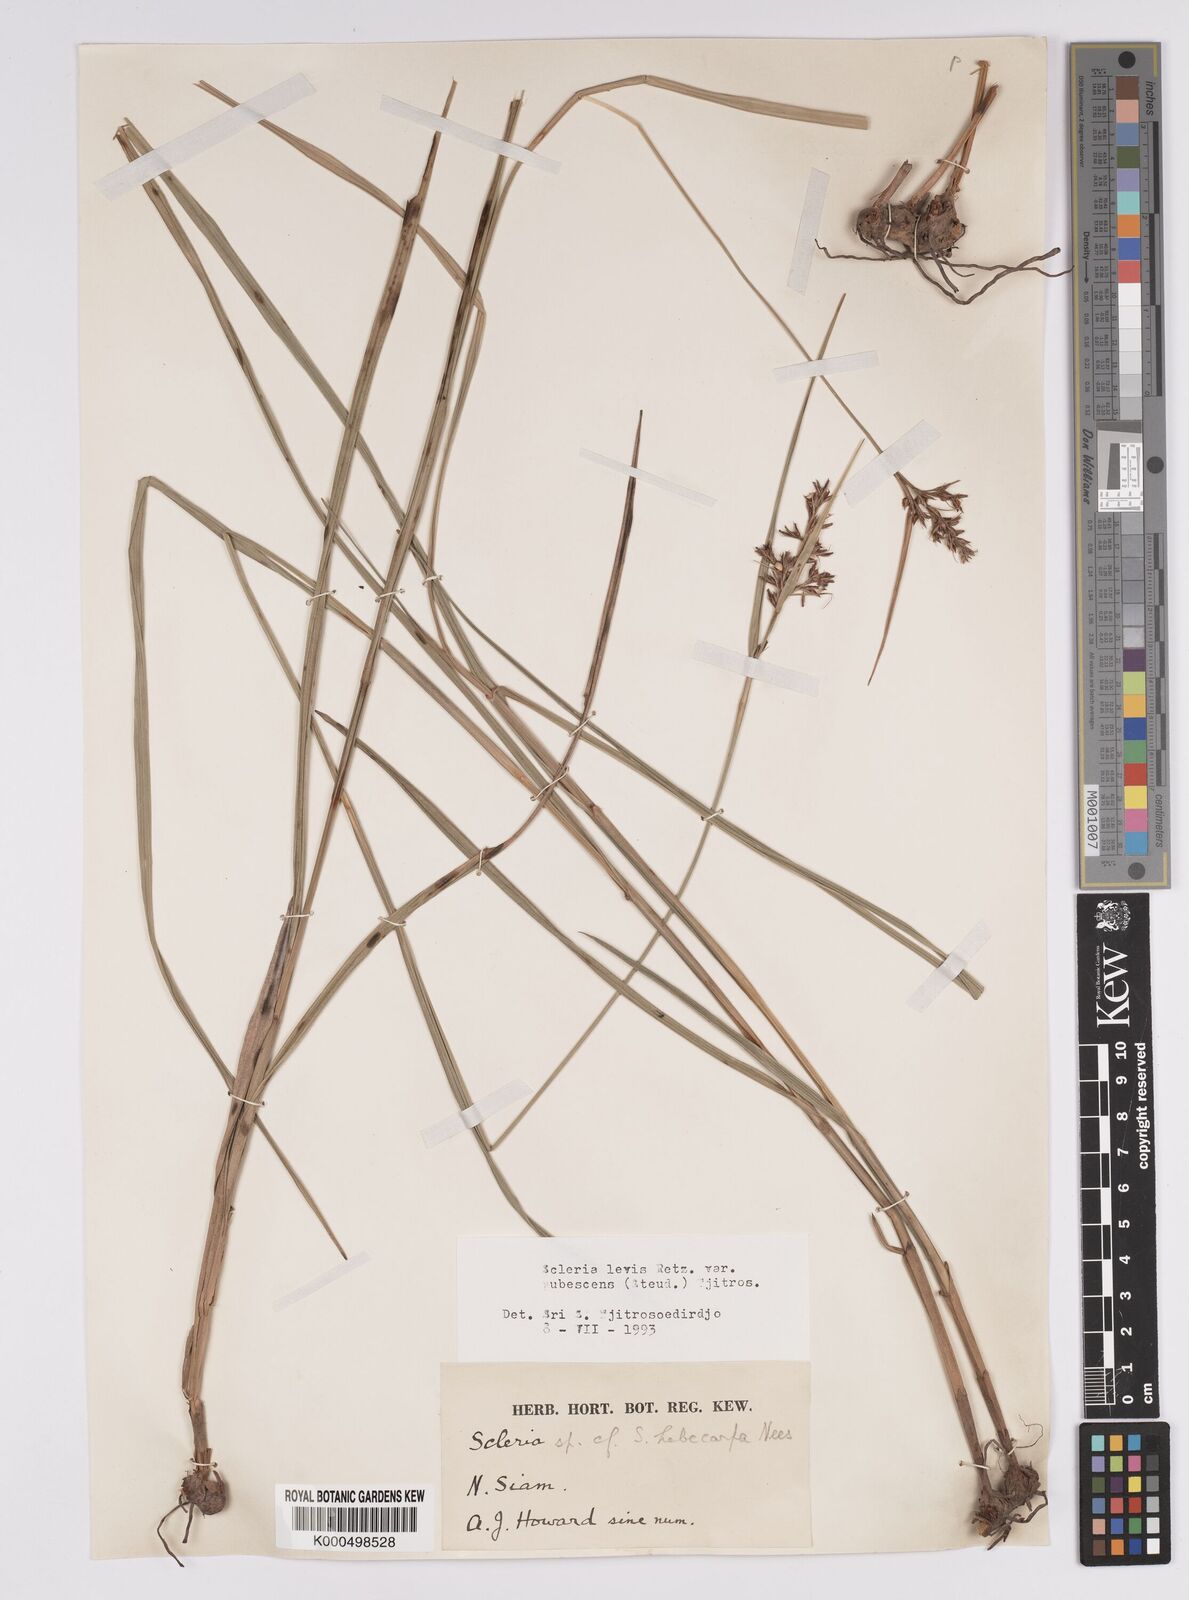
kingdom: Plantae
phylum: Tracheophyta
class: Liliopsida
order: Poales
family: Cyperaceae
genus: Scleria
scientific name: Scleria levis
